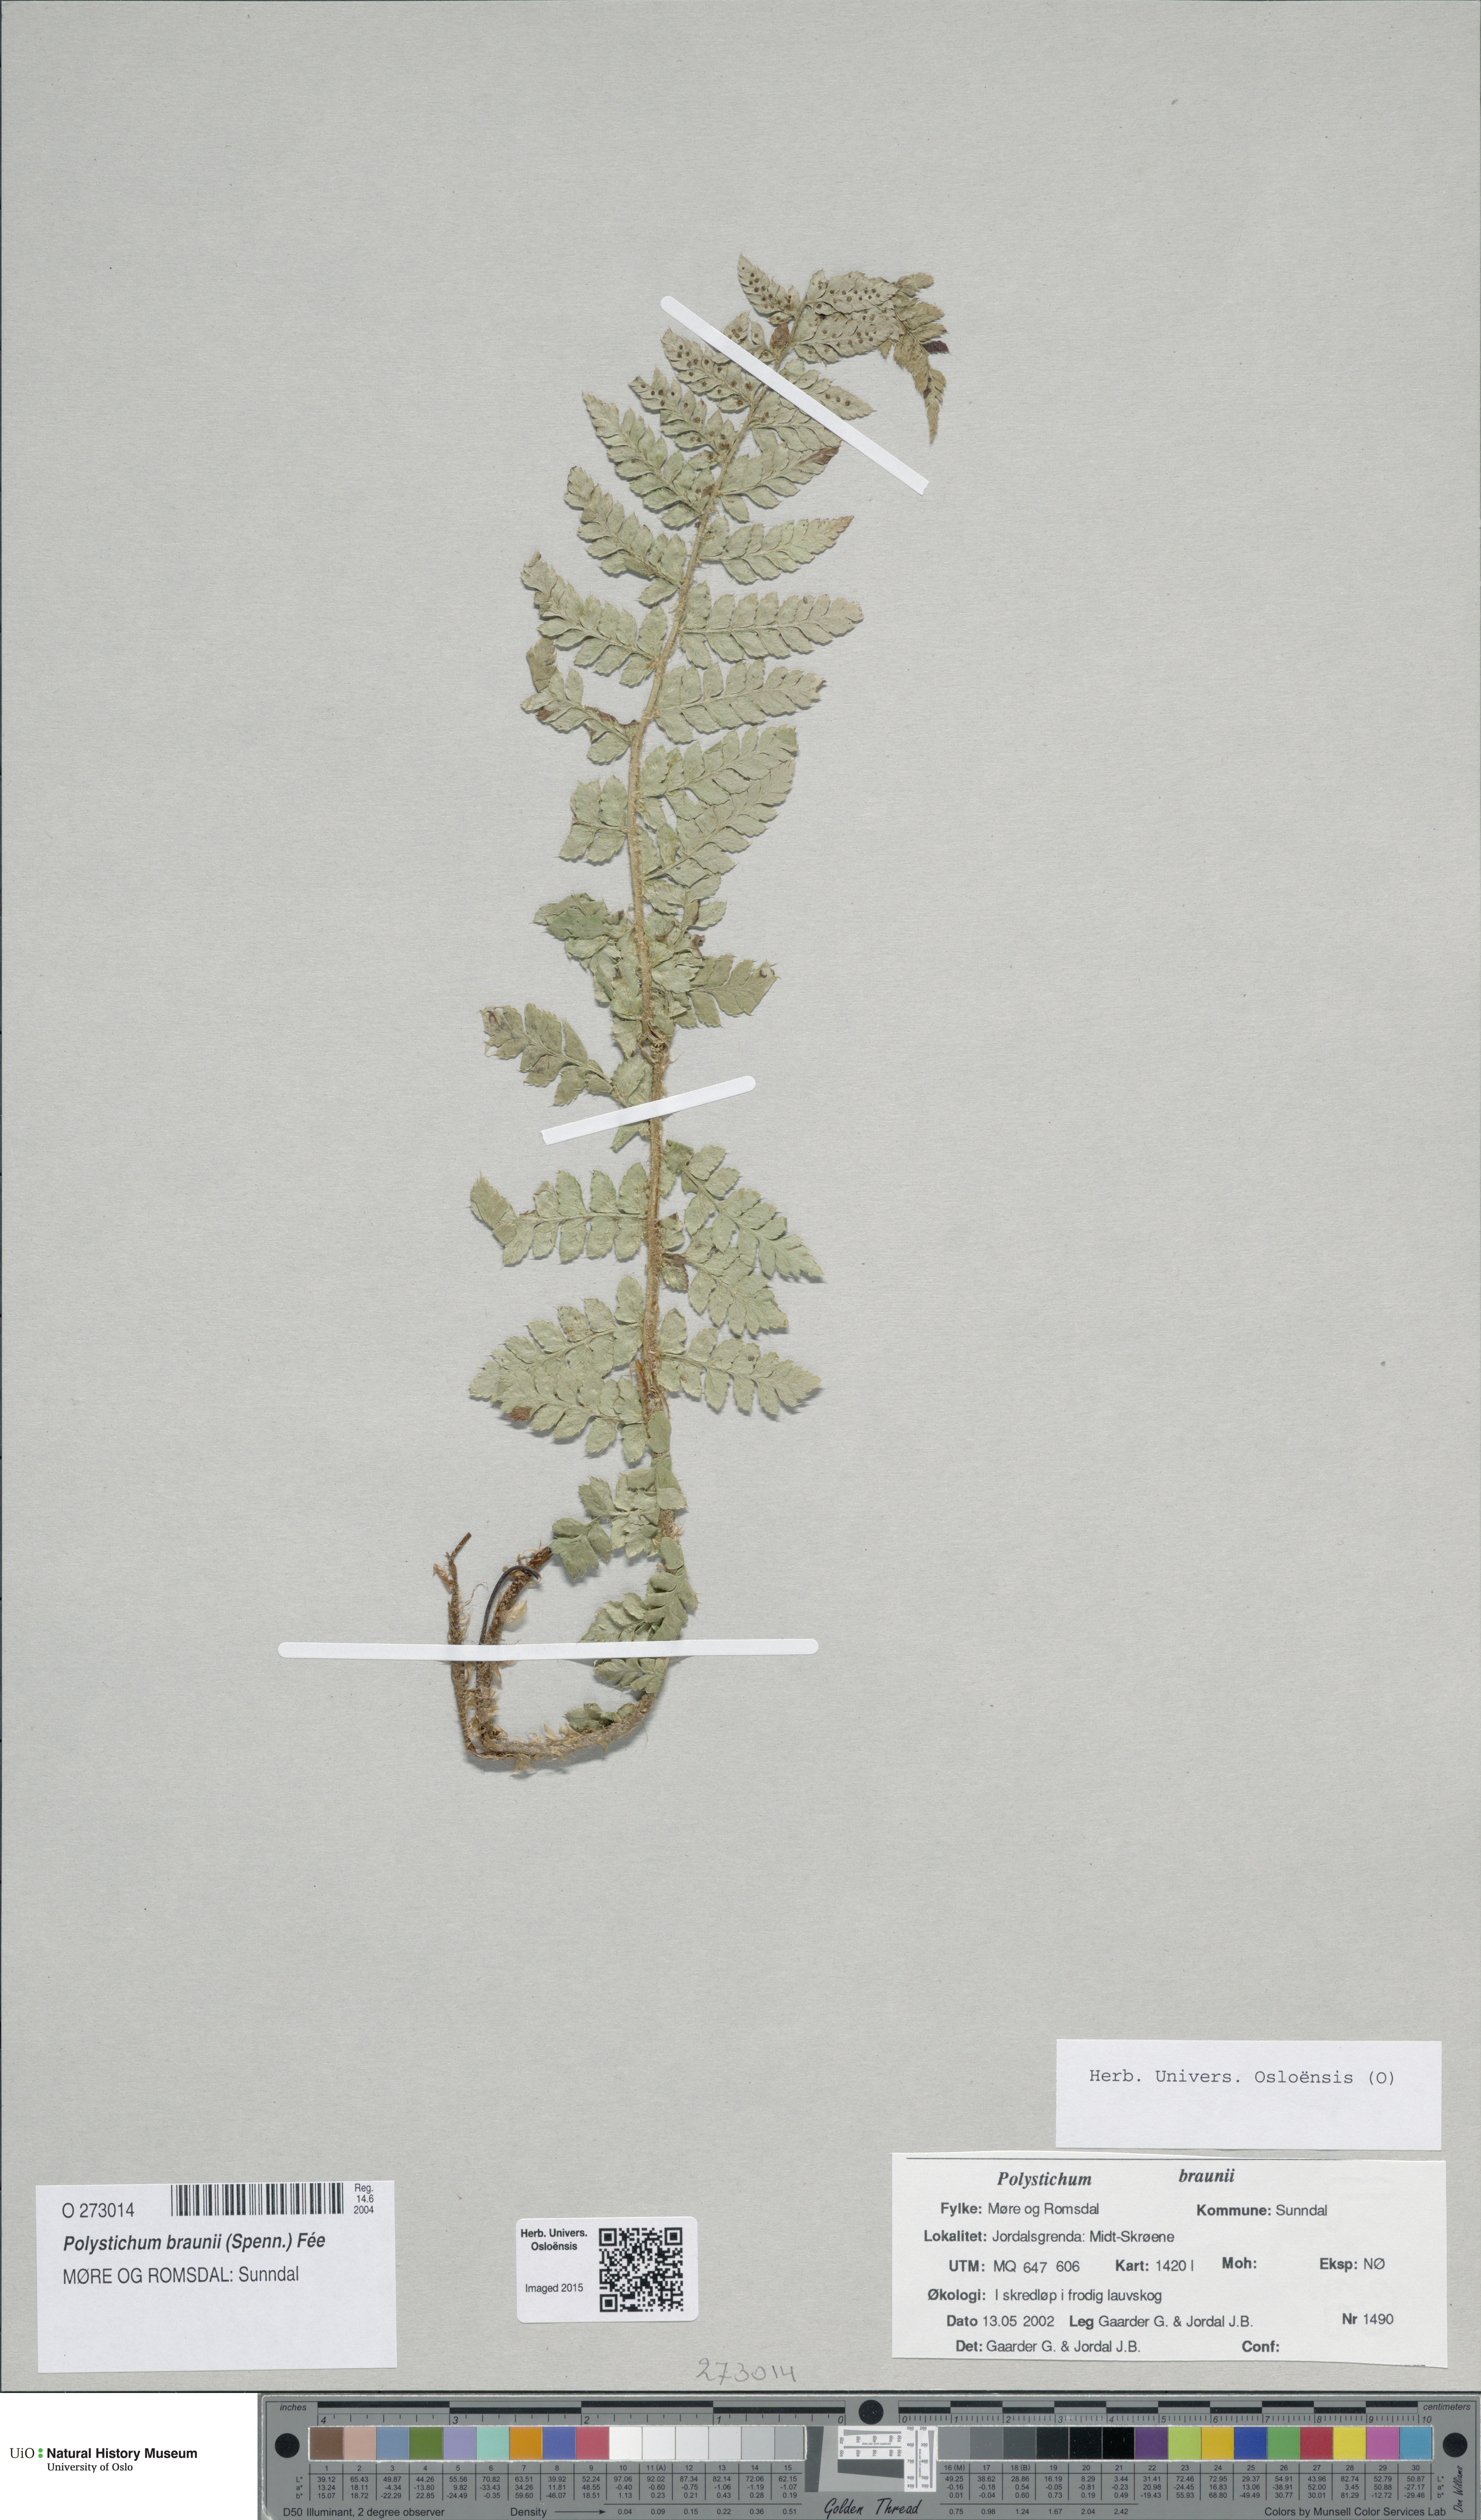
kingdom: Plantae
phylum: Tracheophyta
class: Polypodiopsida
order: Polypodiales
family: Dryopteridaceae
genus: Polystichum
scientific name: Polystichum braunii
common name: Braun's holly fern
